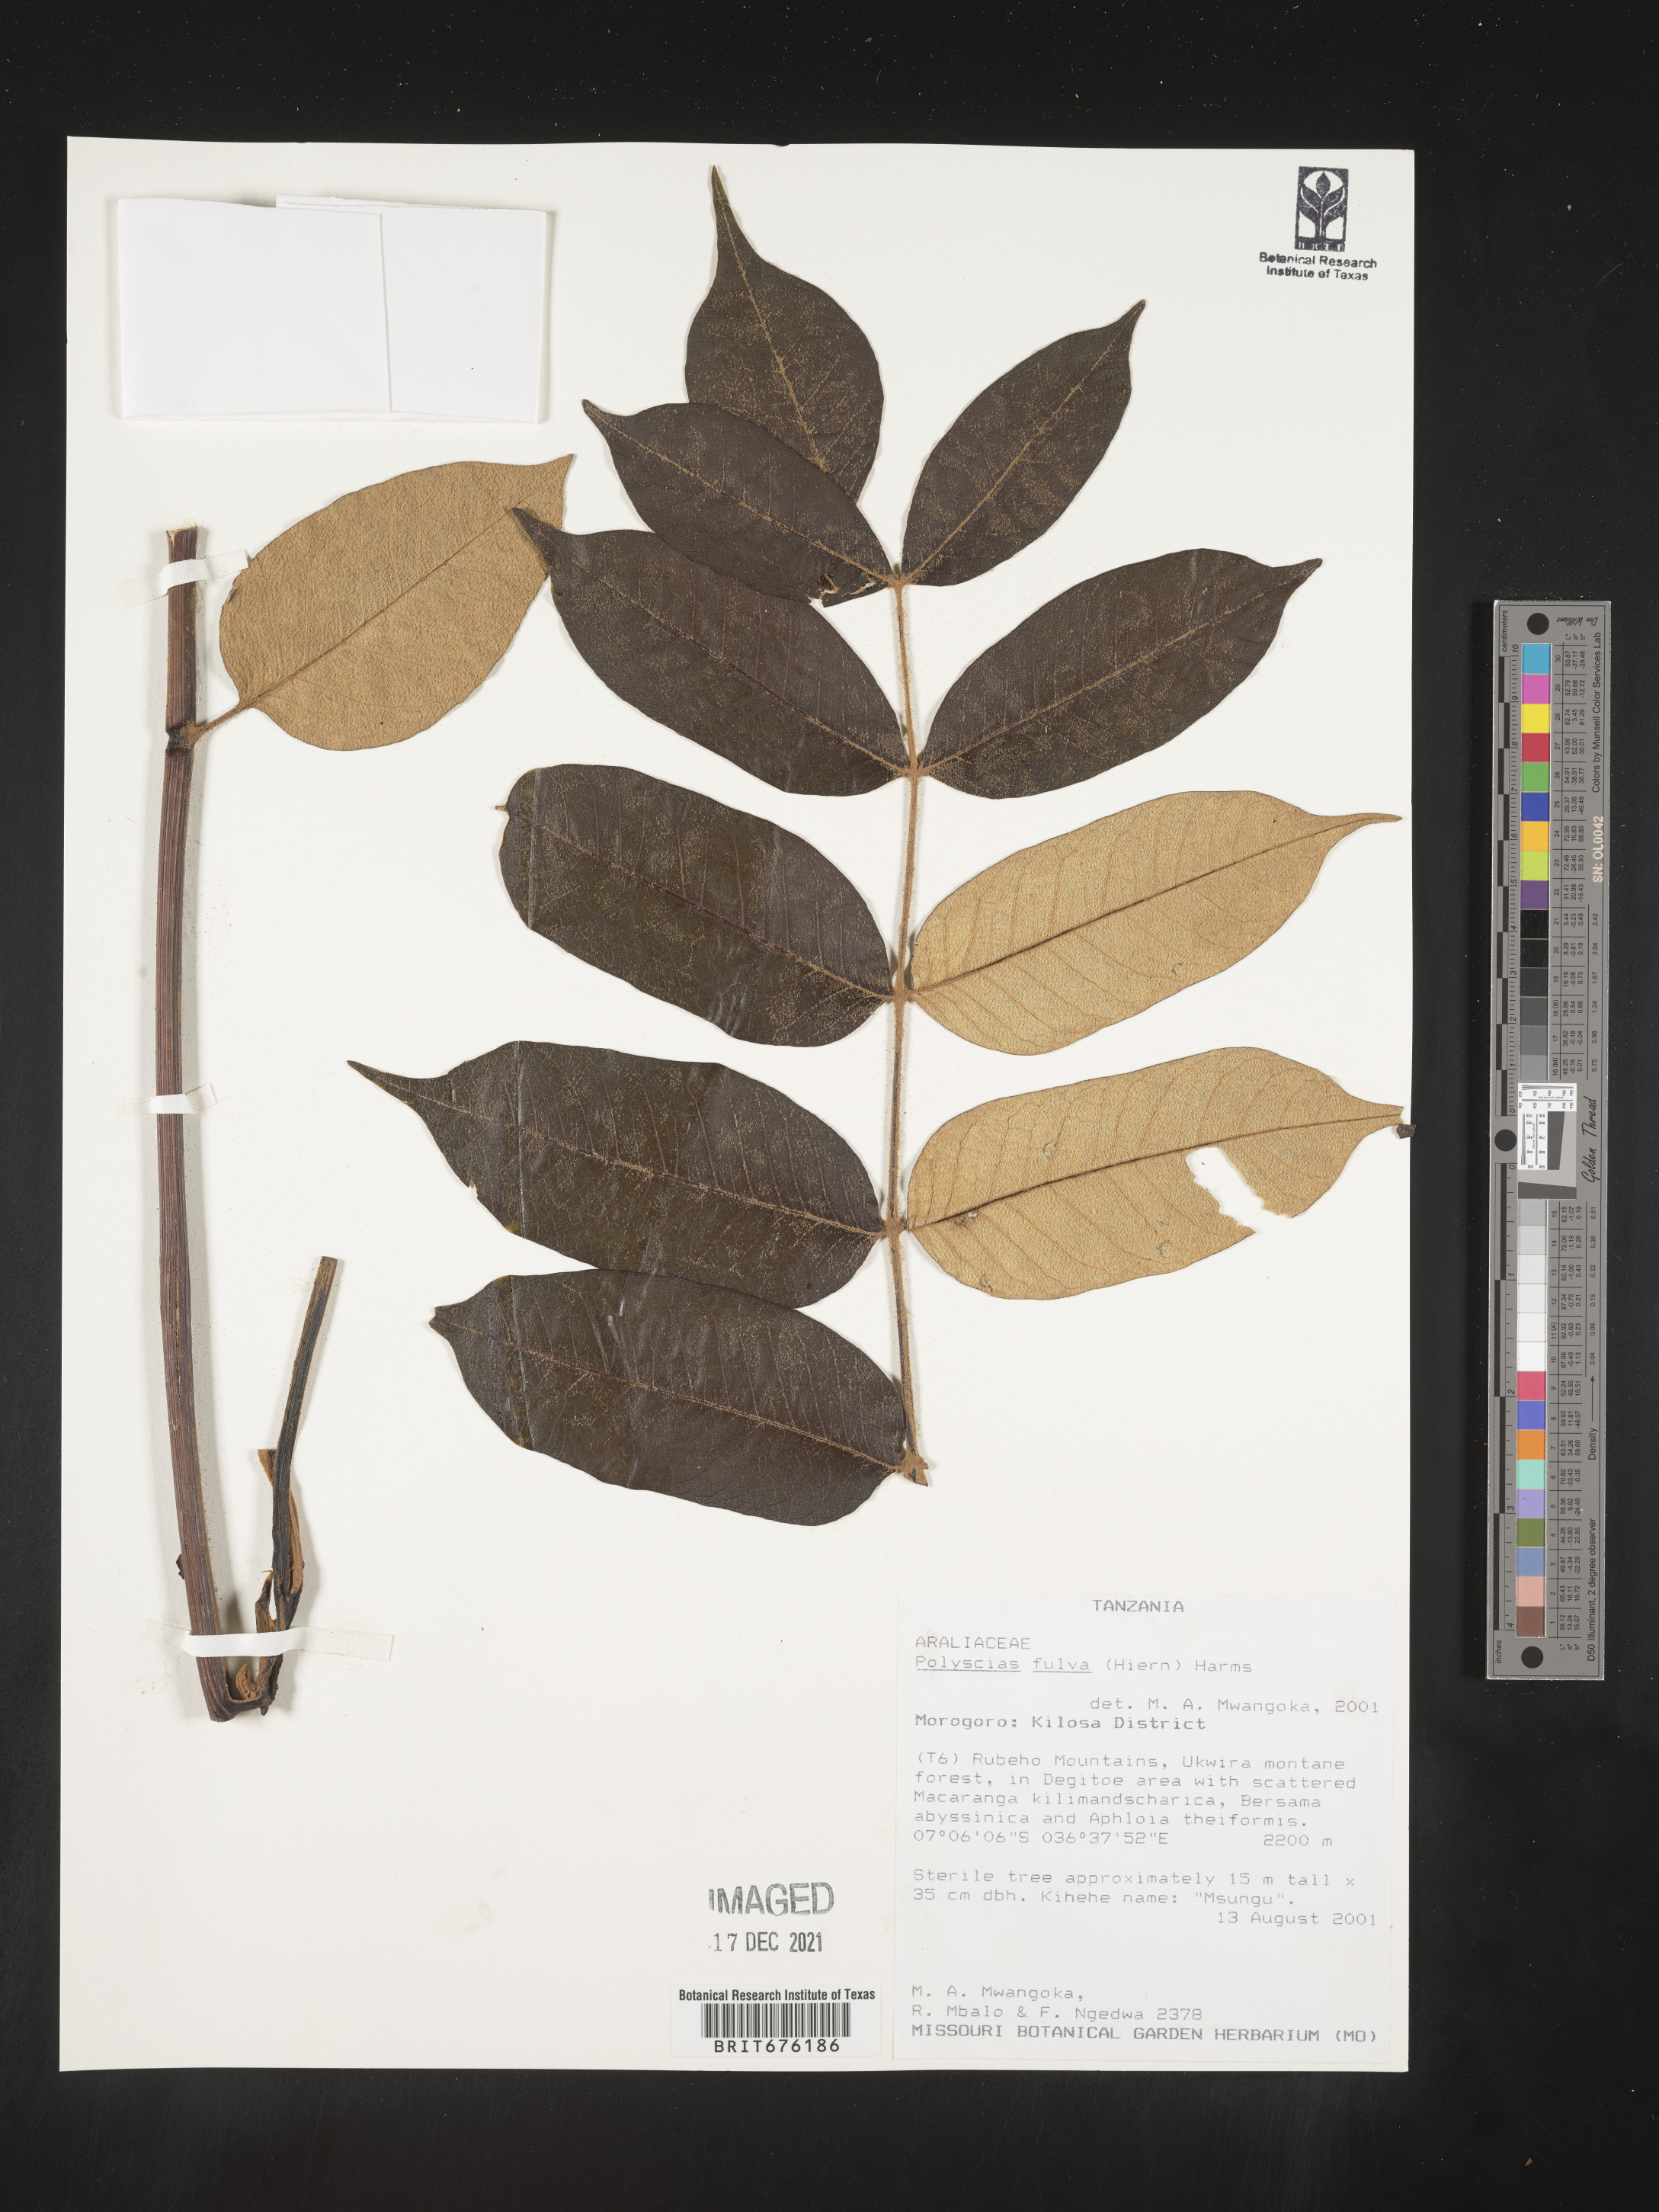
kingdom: Plantae
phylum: Tracheophyta
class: Magnoliopsida
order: Apiales
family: Araliaceae
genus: Polyscias
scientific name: Polyscias
